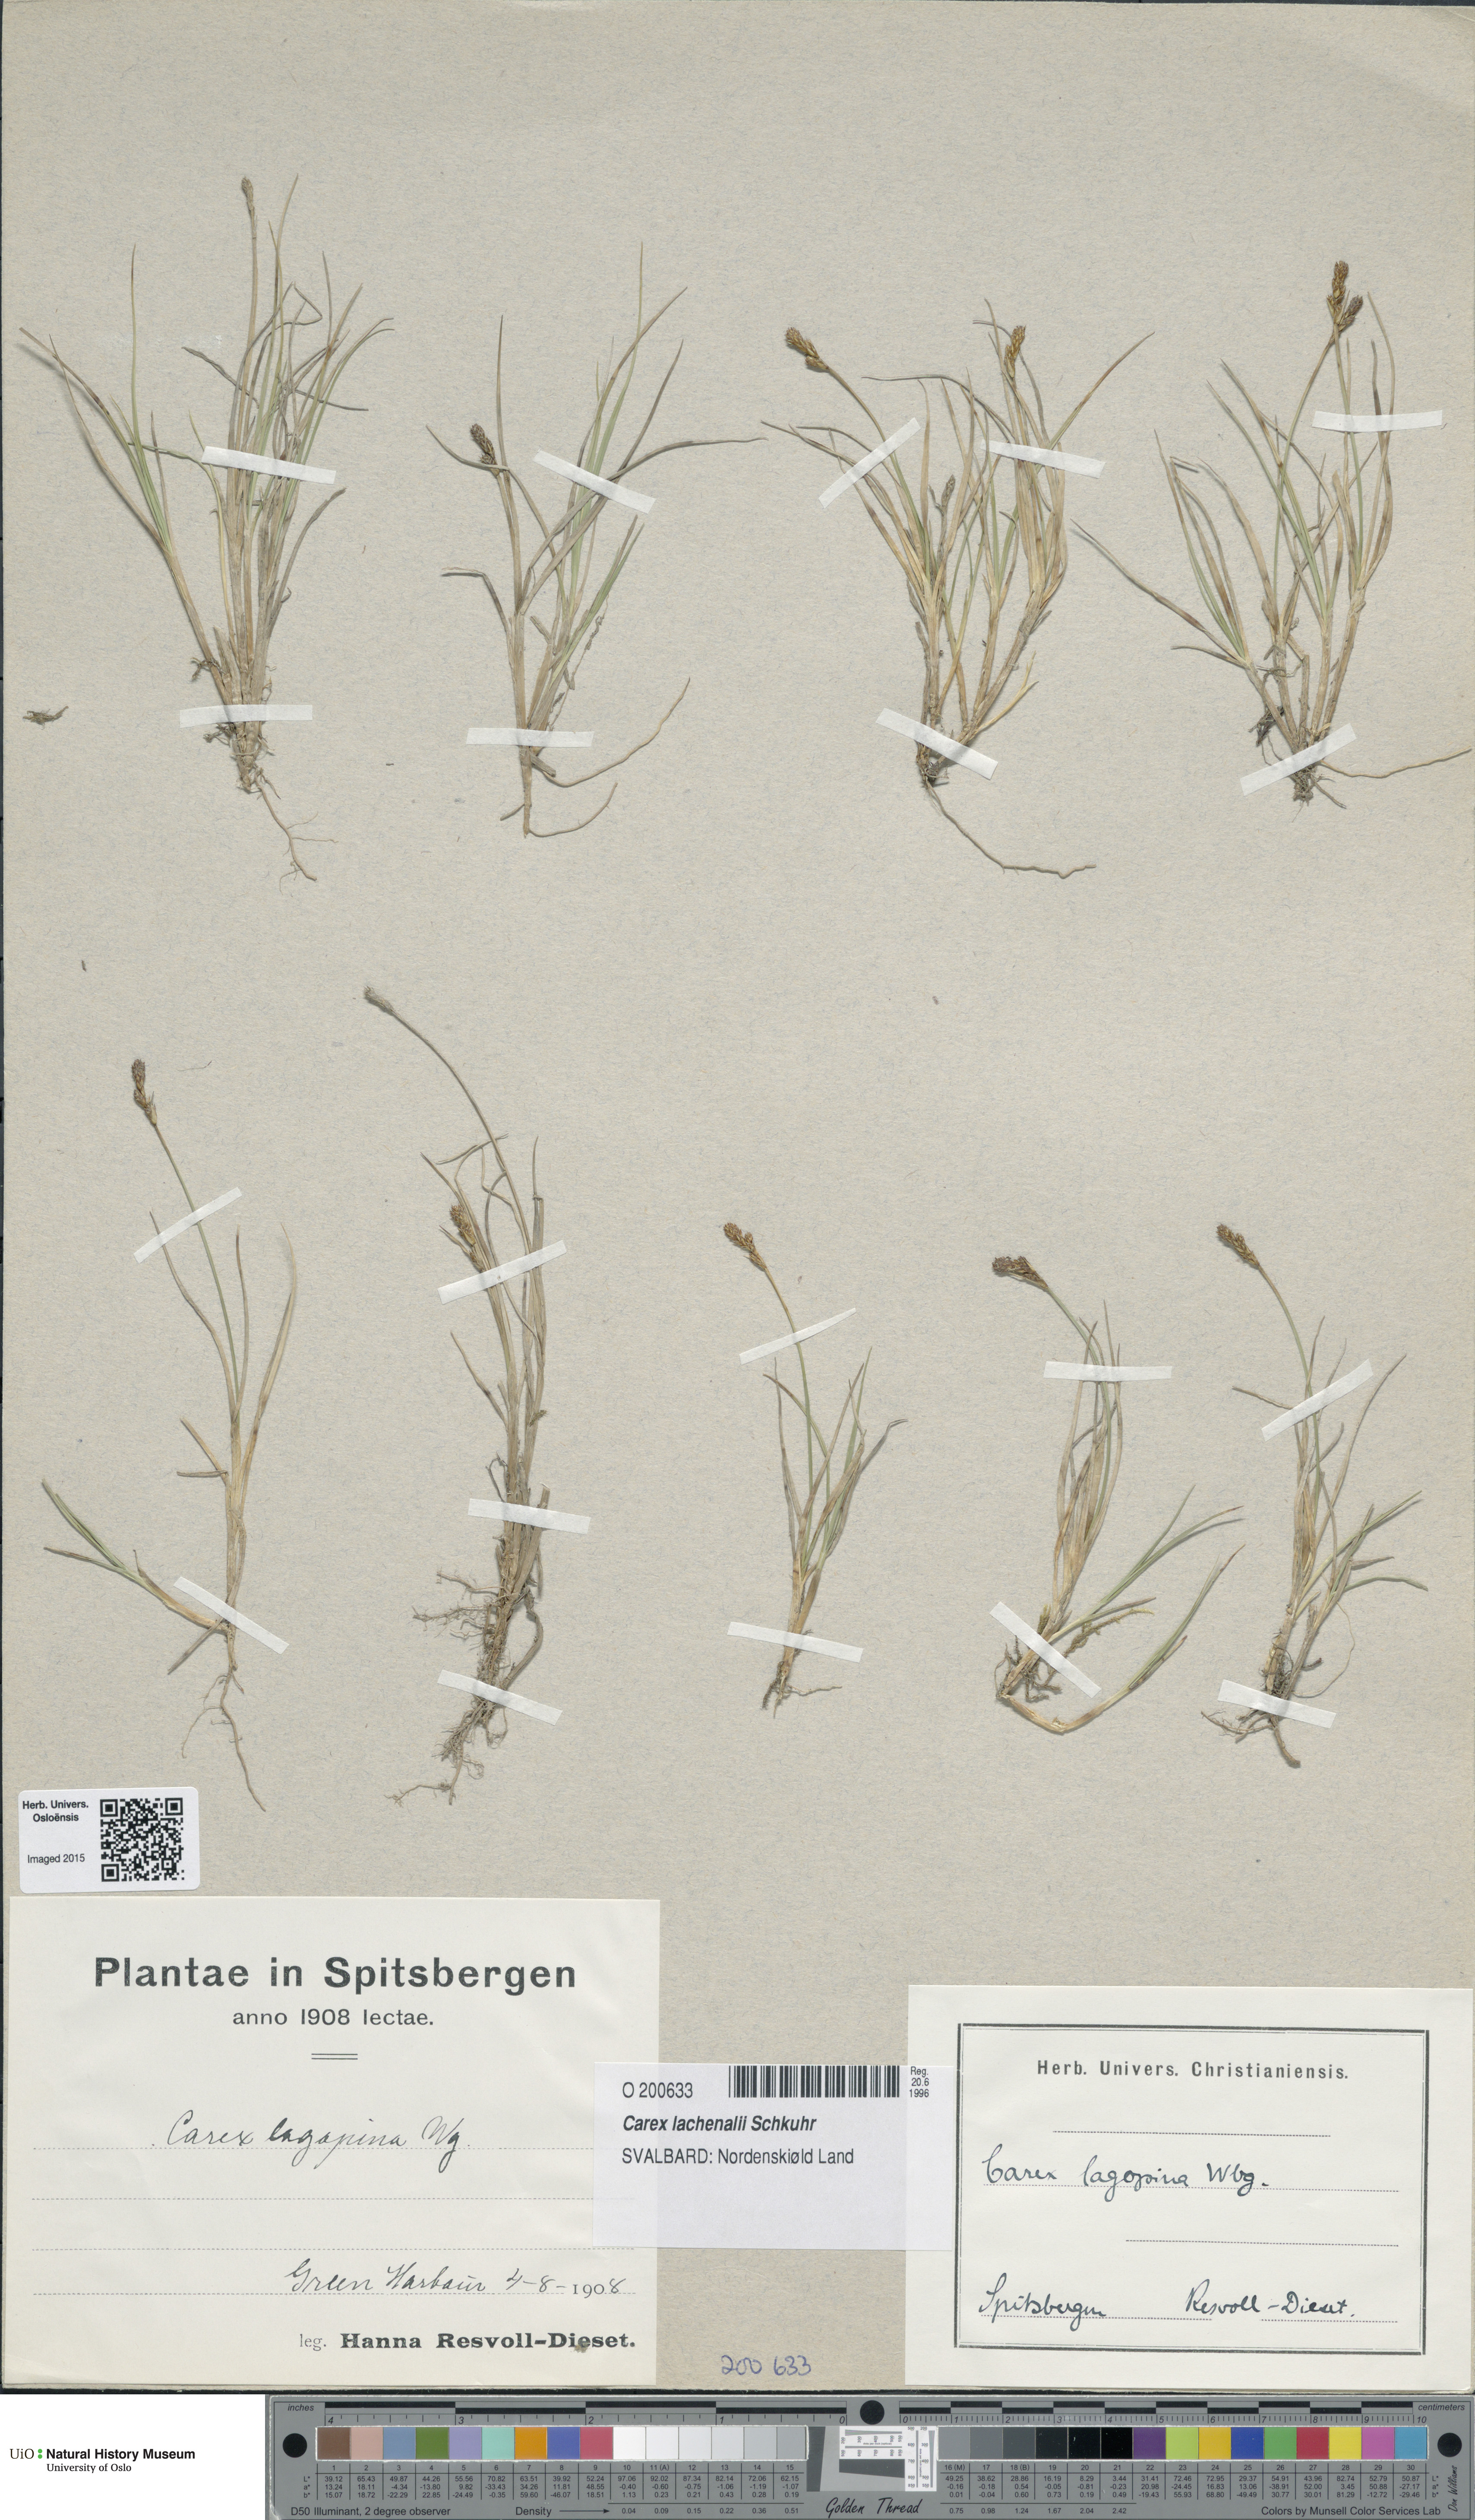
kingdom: Plantae
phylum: Tracheophyta
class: Liliopsida
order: Poales
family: Cyperaceae
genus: Carex
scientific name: Carex lachenalii
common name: Hare's-foot sedge
